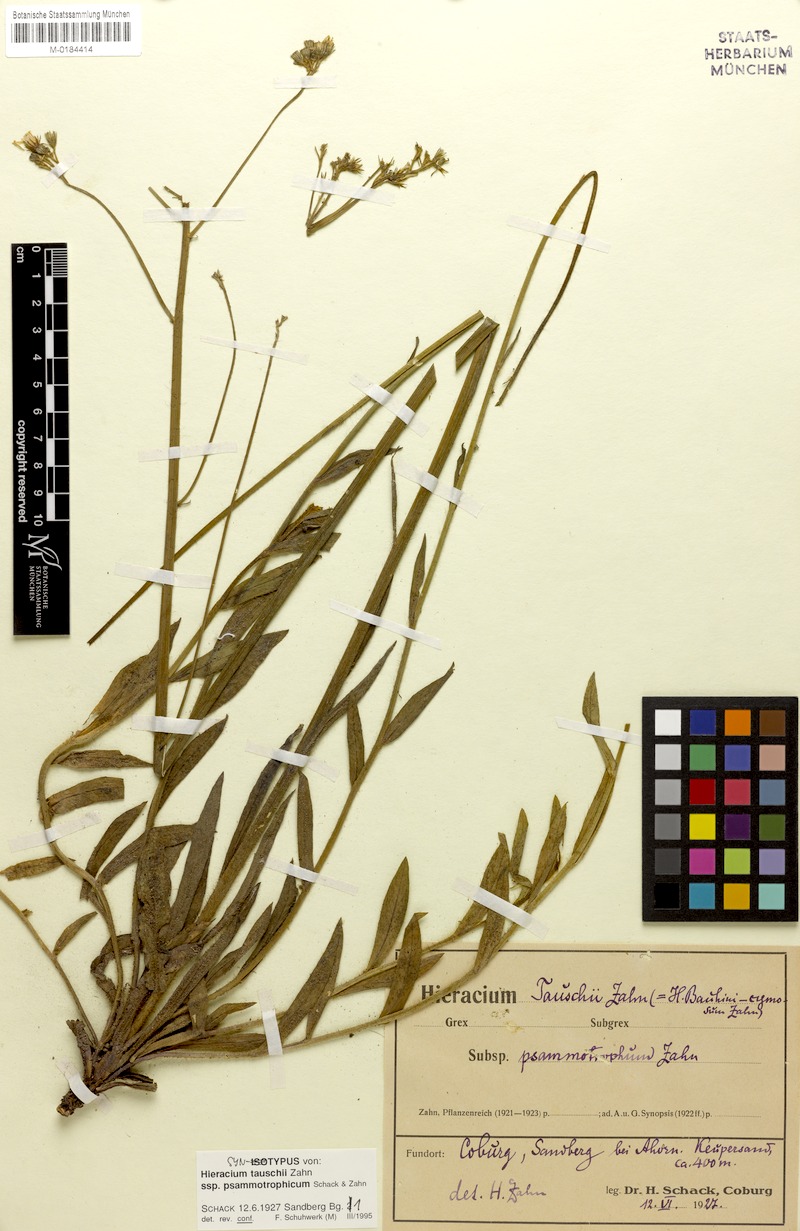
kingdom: Plantae
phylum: Tracheophyta
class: Magnoliopsida
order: Asterales
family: Asteraceae
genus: Pilosella
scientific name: Pilosella densiflora
